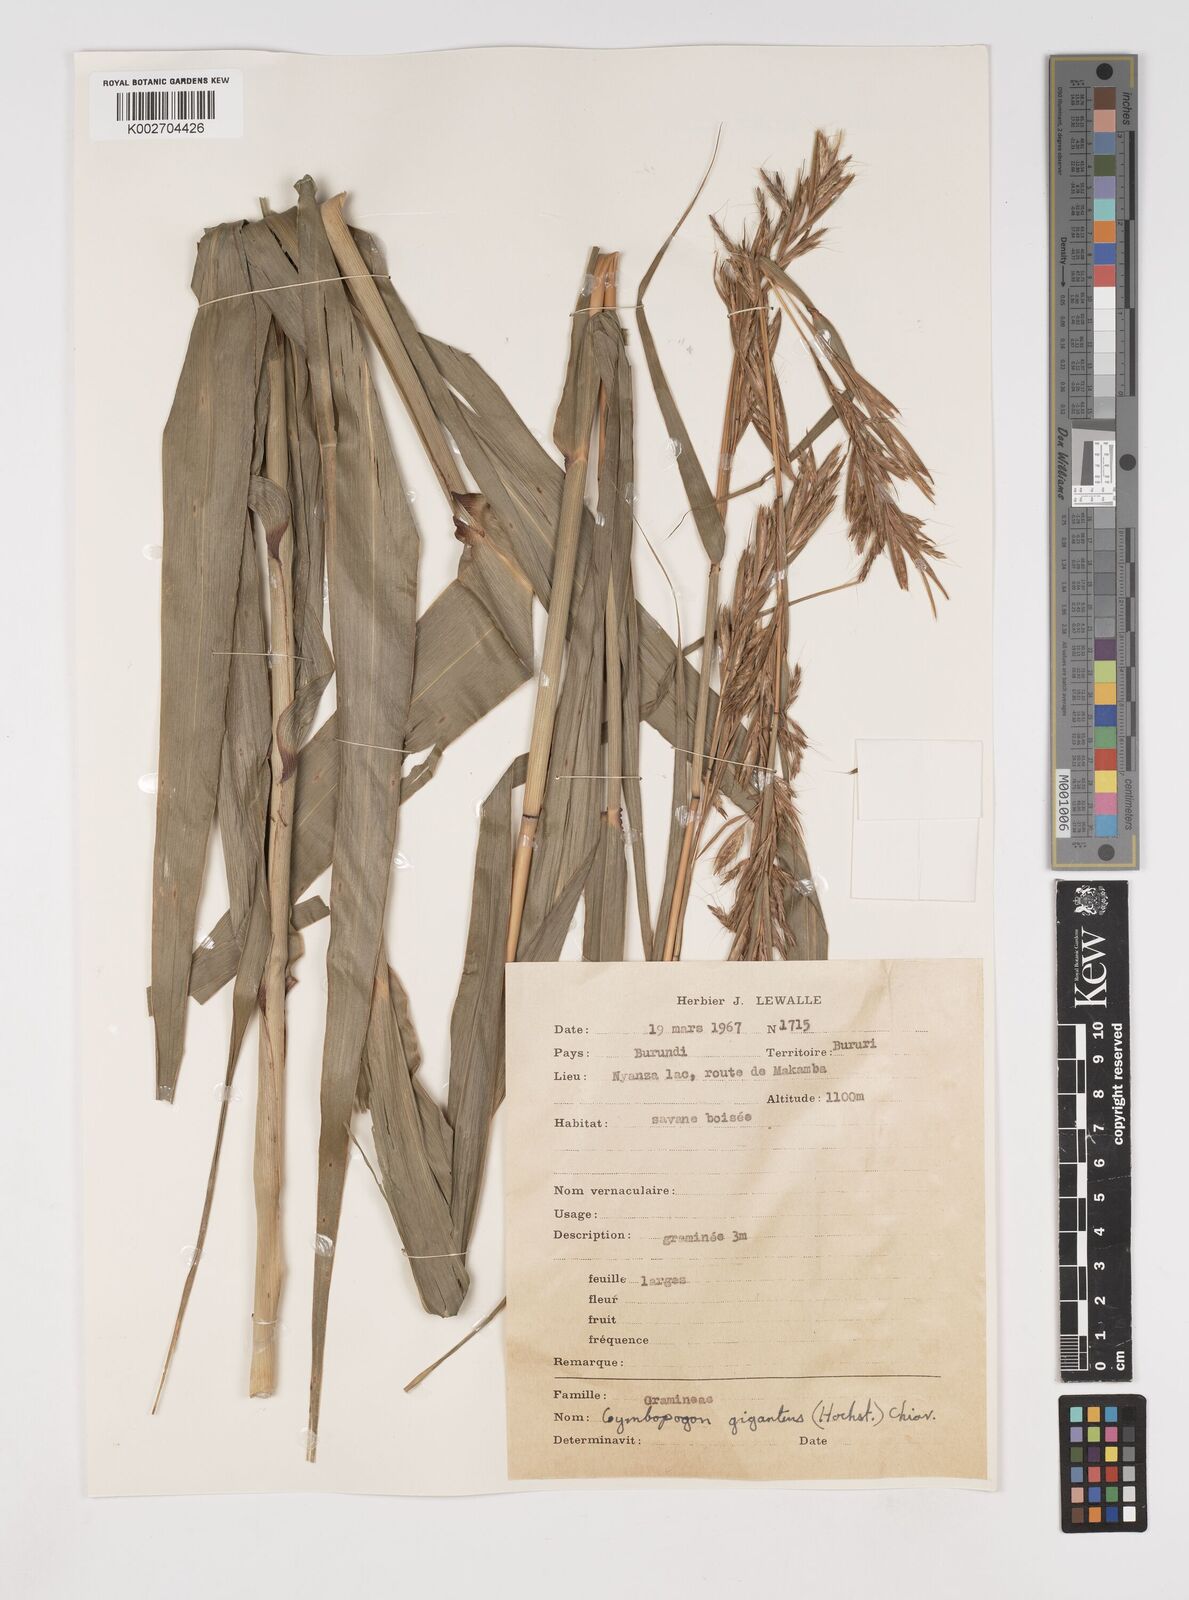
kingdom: Plantae
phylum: Tracheophyta
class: Liliopsida
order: Poales
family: Poaceae
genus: Cymbopogon
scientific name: Cymbopogon giganteus
